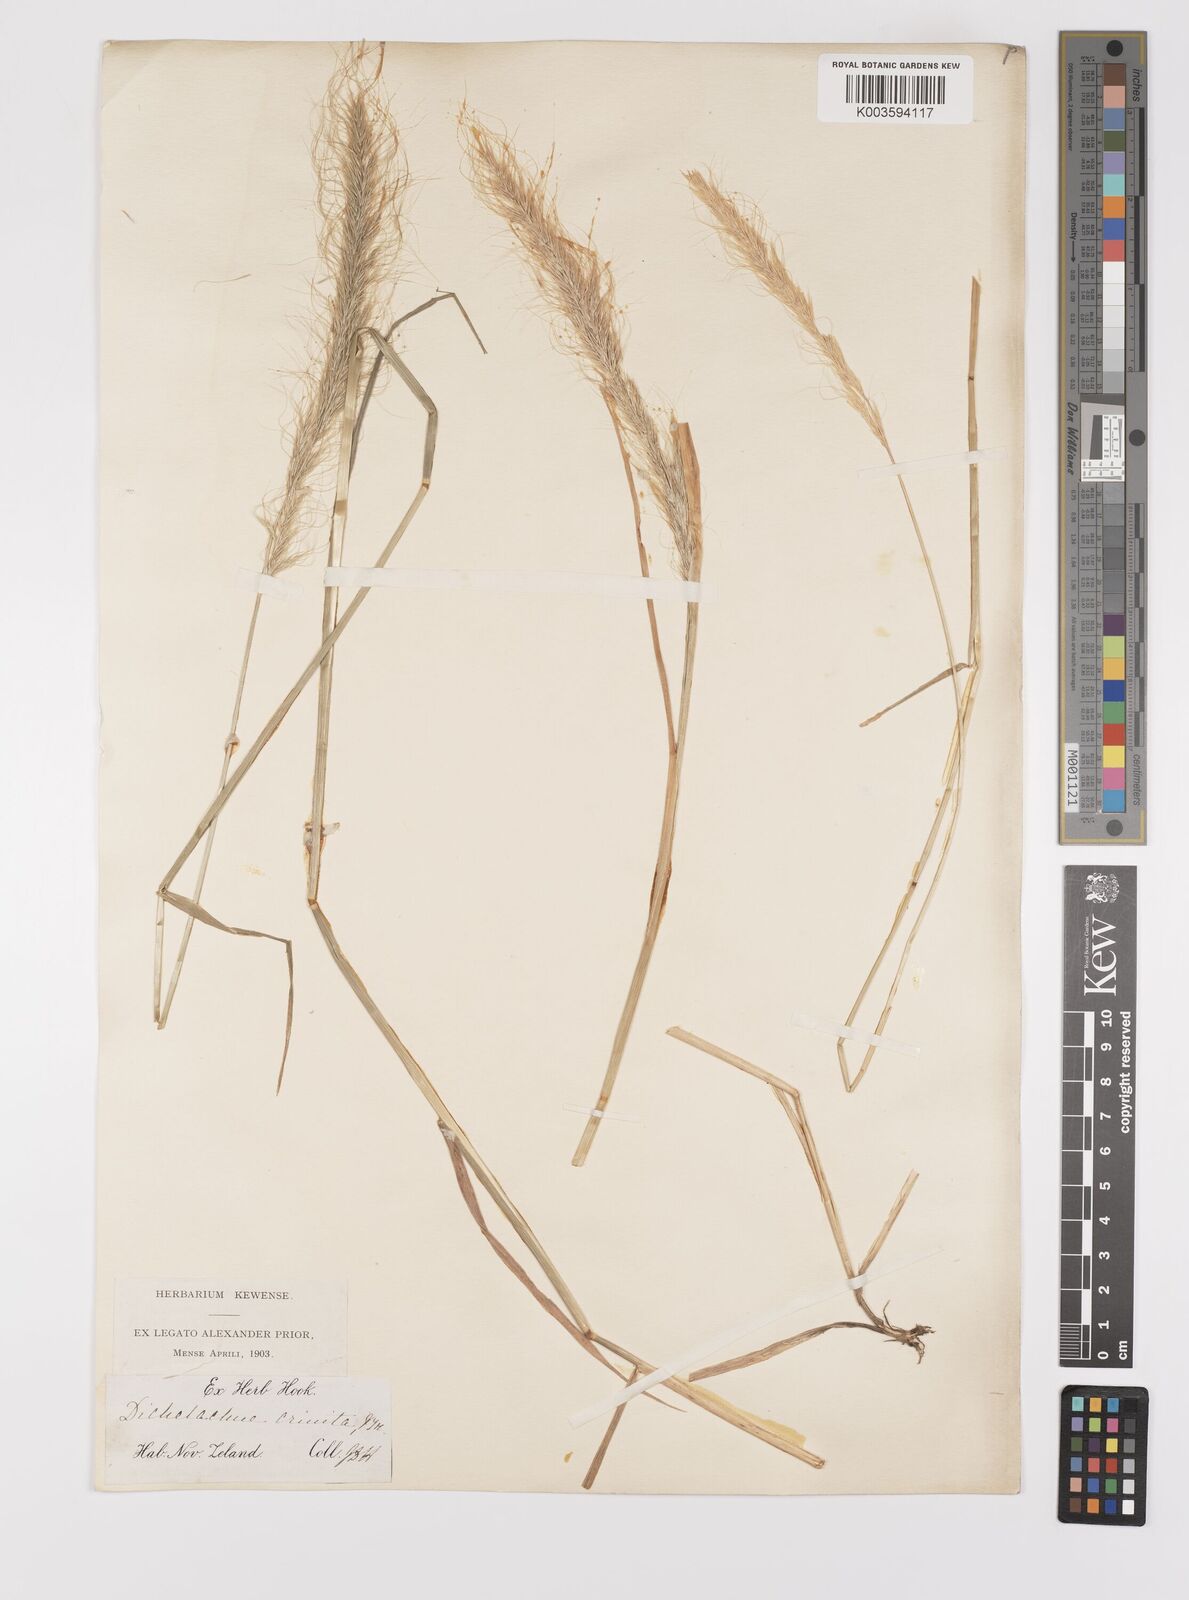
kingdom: Plantae
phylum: Tracheophyta
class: Liliopsida
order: Poales
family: Poaceae
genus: Dichelachne
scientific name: Dichelachne crinita
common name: Clovenfoot plumegrass
